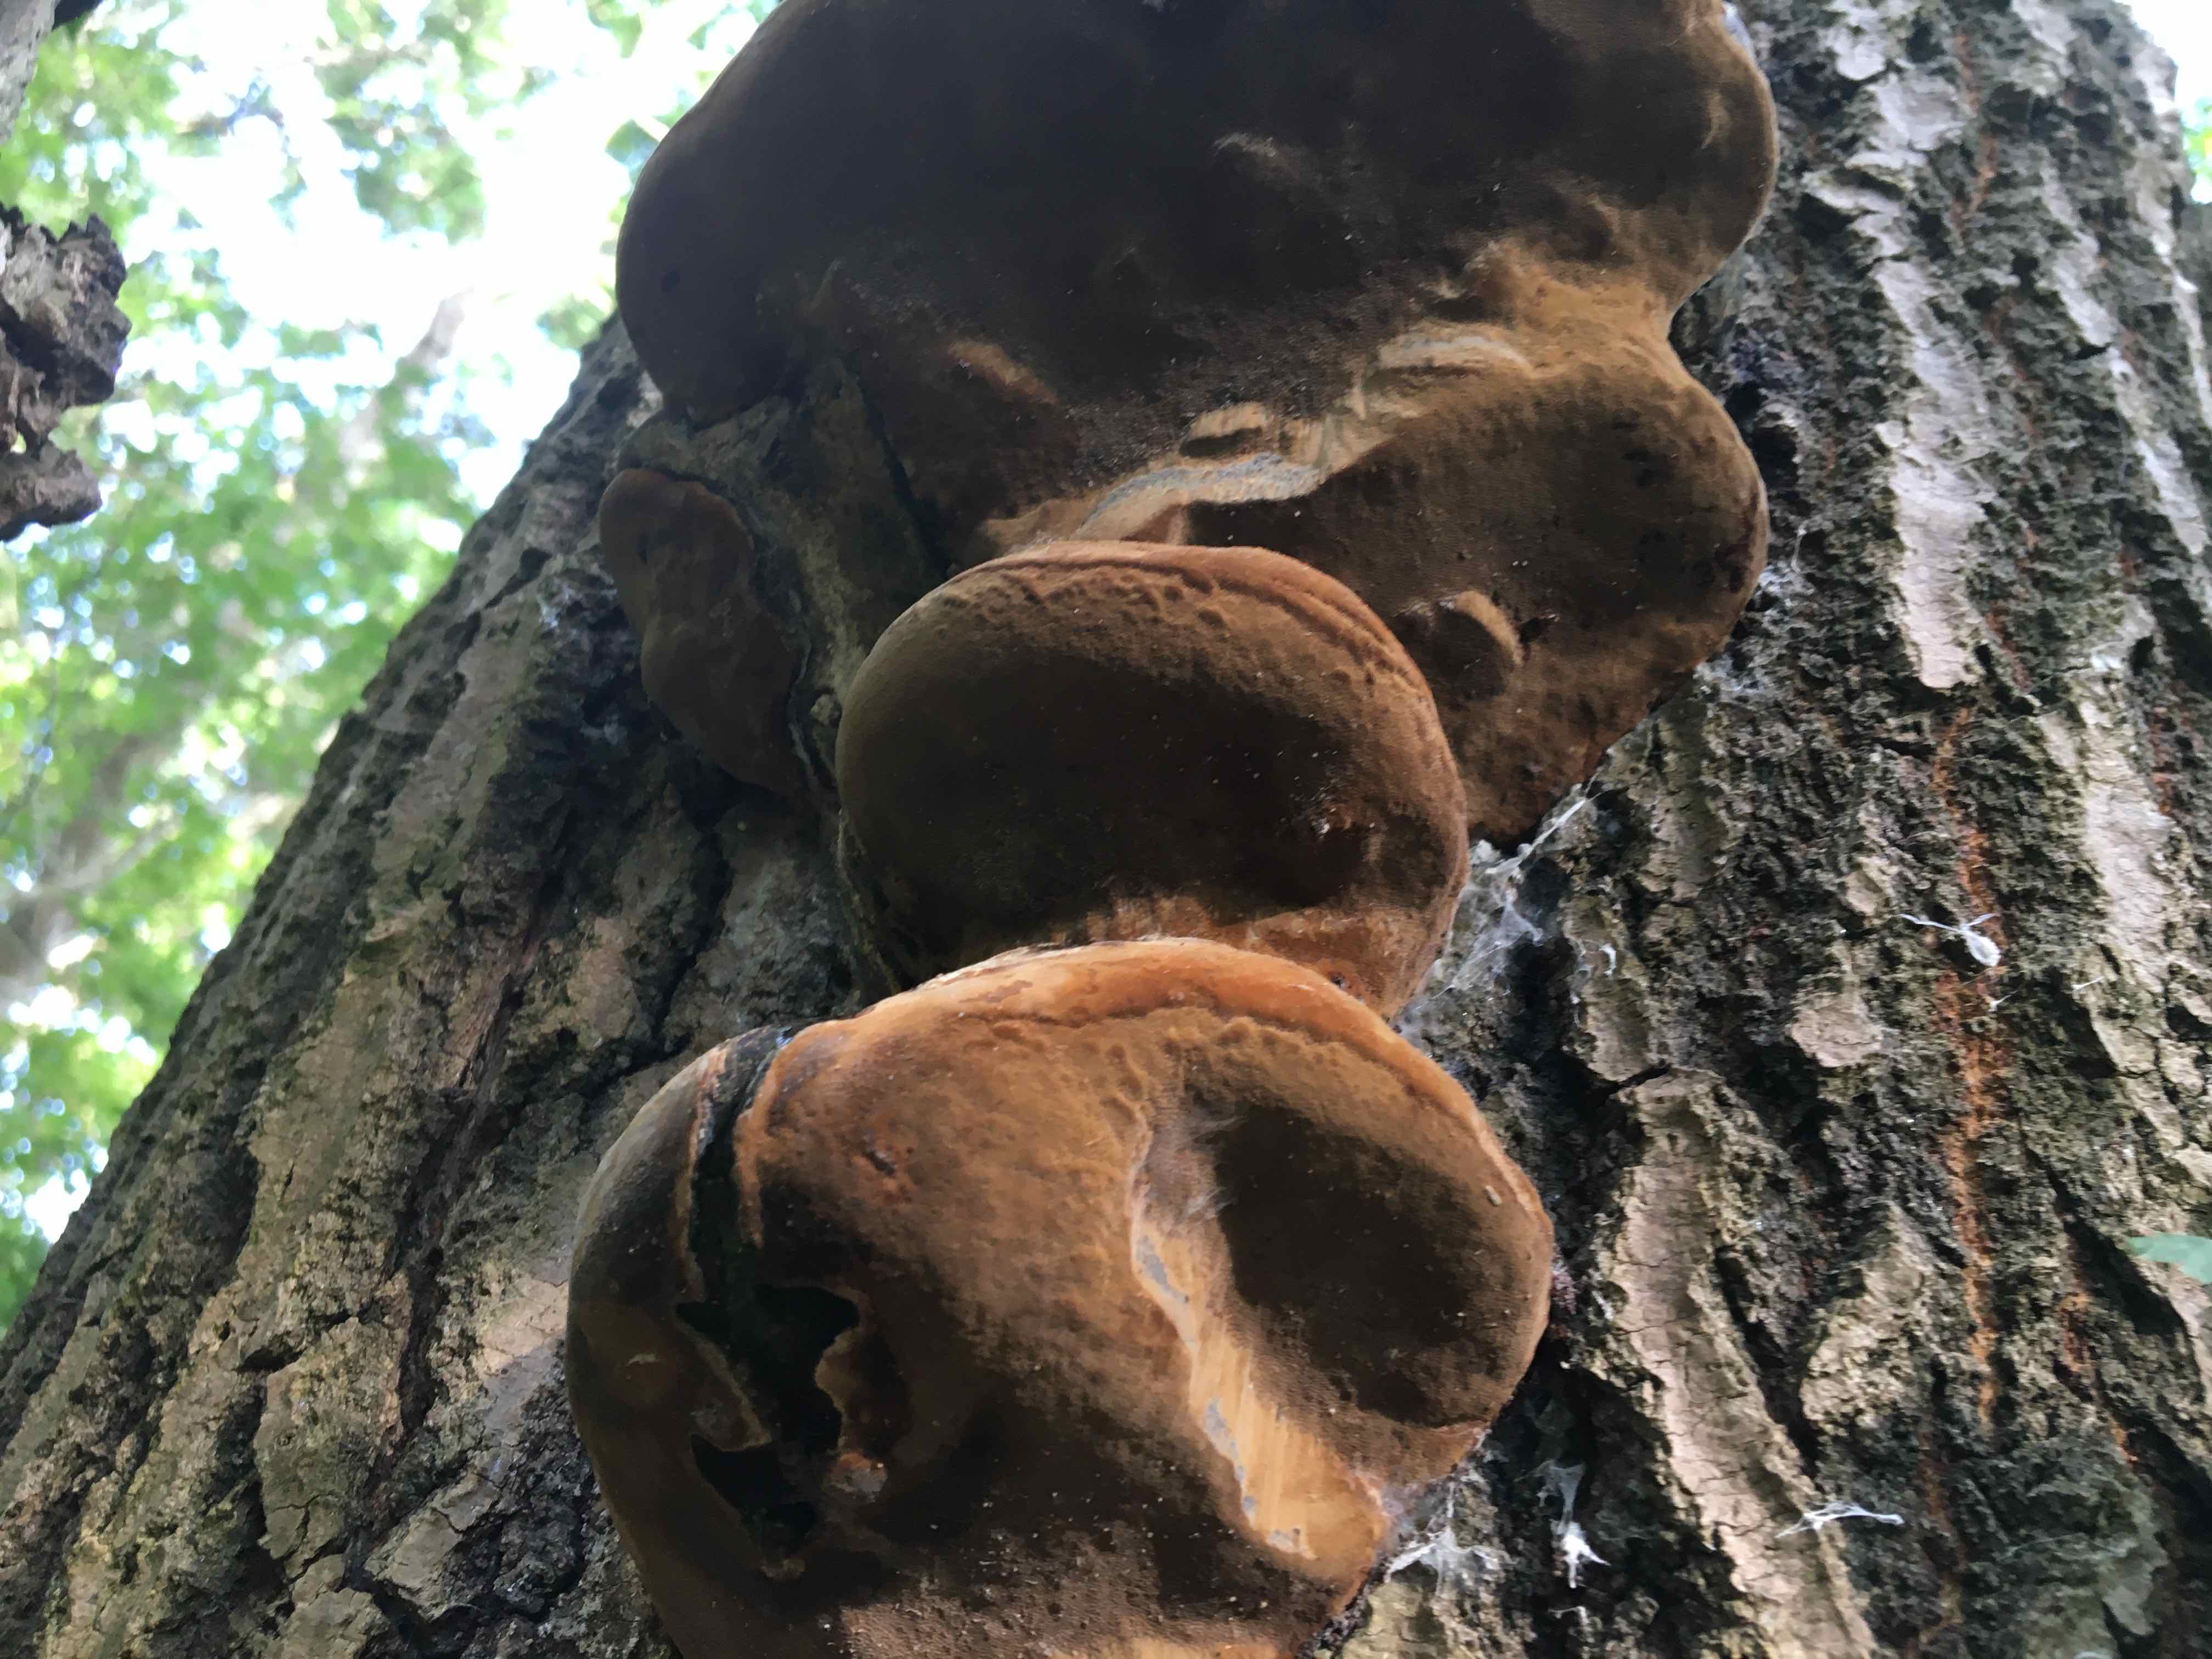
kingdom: Fungi
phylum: Basidiomycota
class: Agaricomycetes
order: Hymenochaetales
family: Hymenochaetaceae
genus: Phellinus
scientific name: Phellinus populicola
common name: poppel-ildporesvamp
